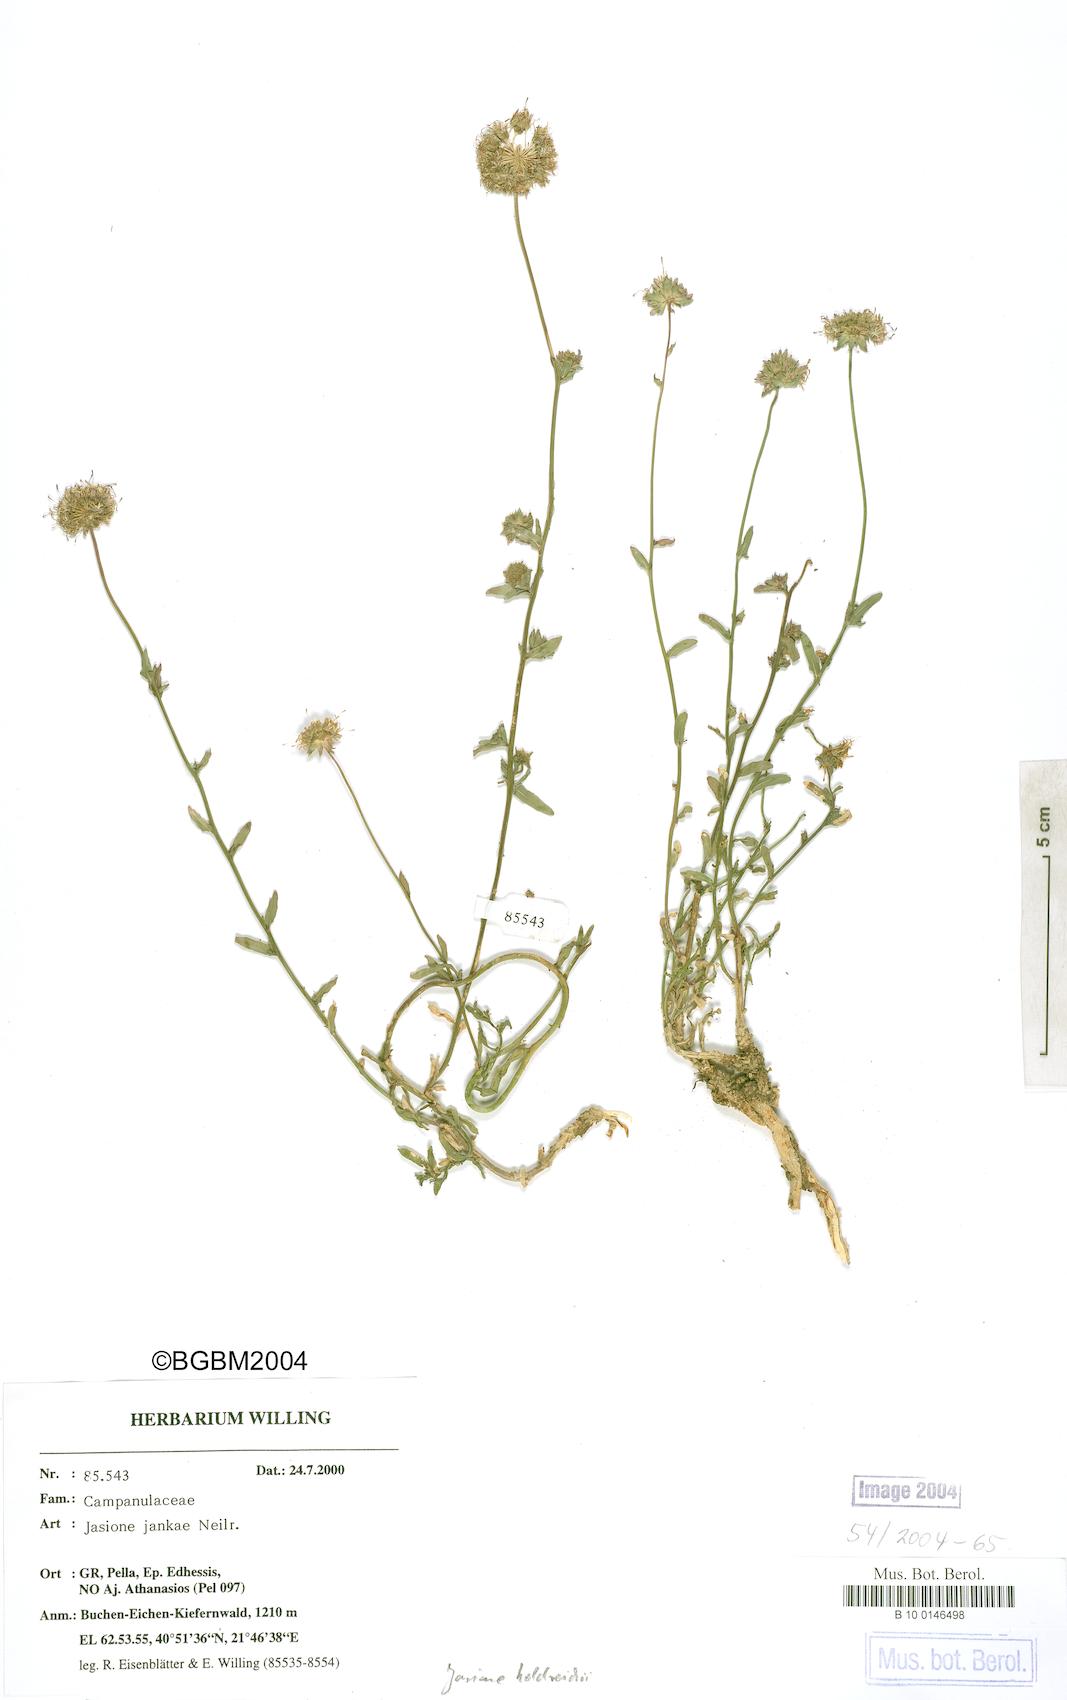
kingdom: Plantae
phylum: Tracheophyta
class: Magnoliopsida
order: Asterales
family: Campanulaceae
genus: Jasione
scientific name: Jasione heldreichii
